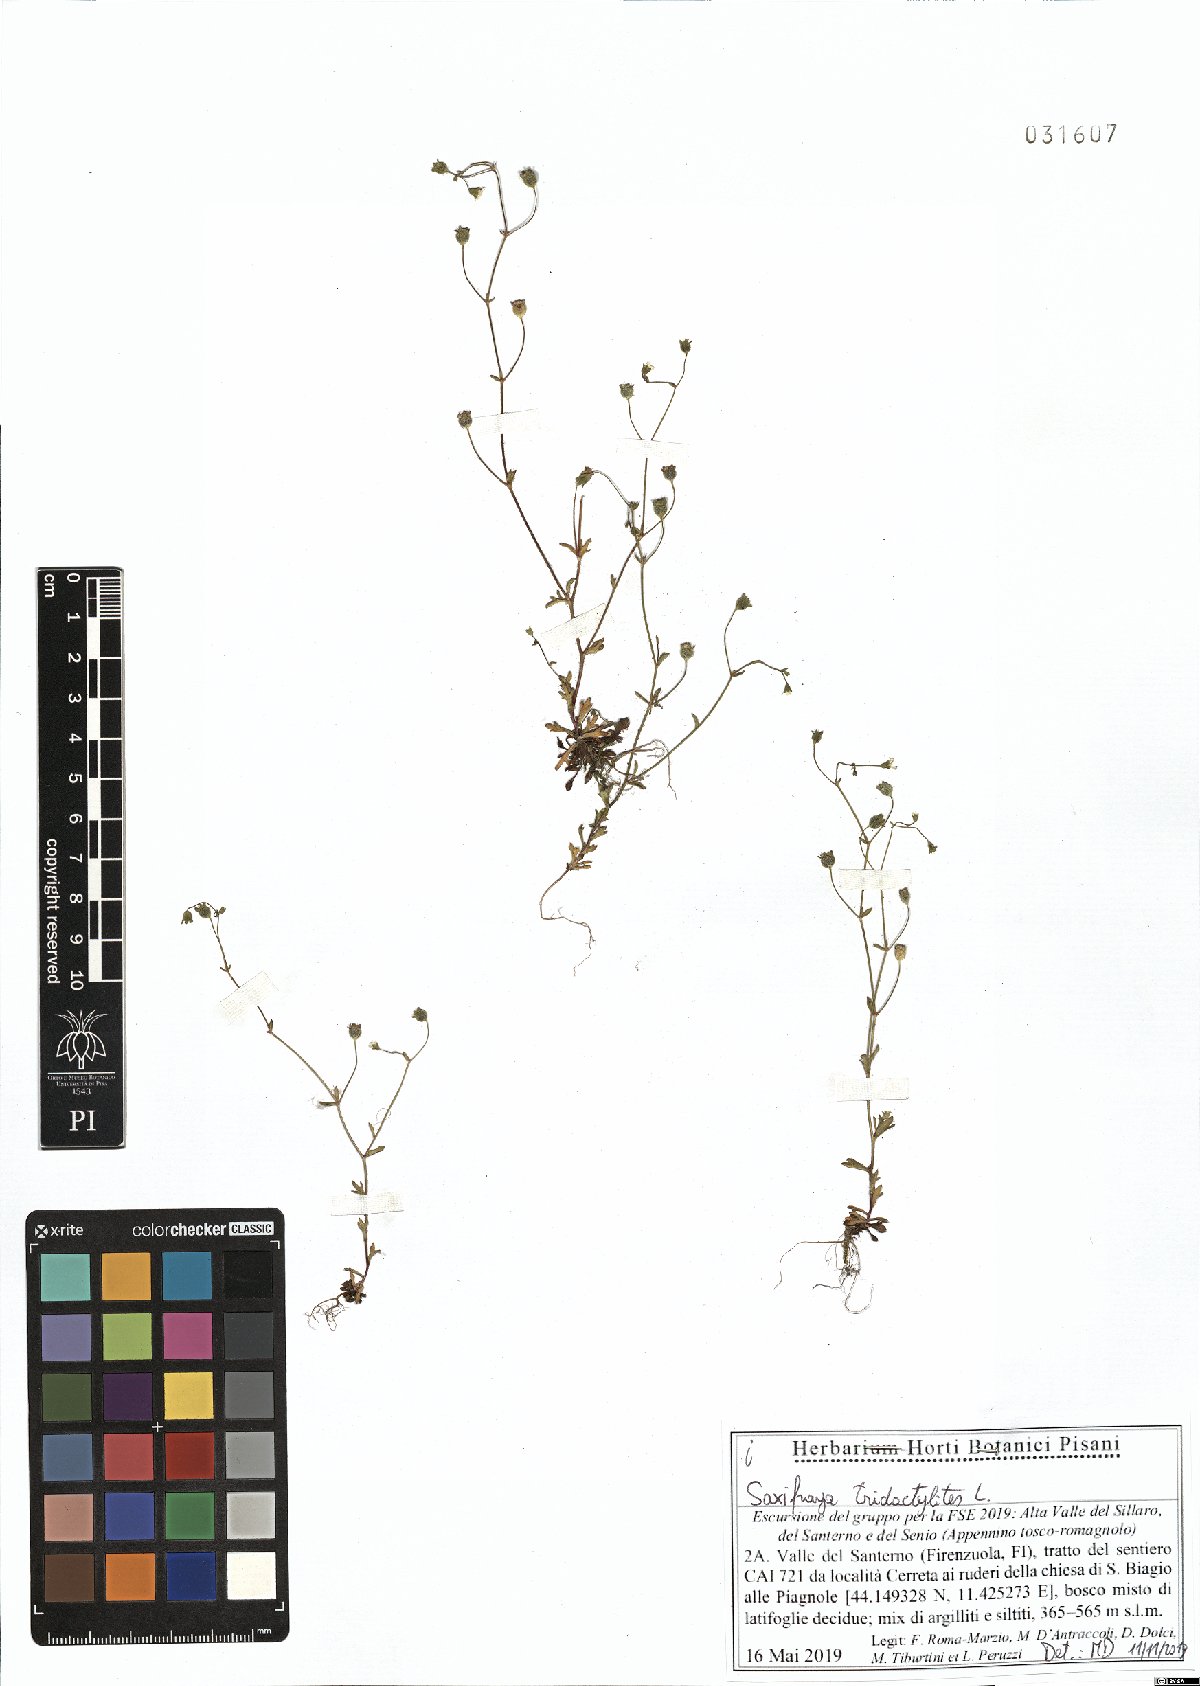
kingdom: Plantae
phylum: Tracheophyta
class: Magnoliopsida
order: Saxifragales
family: Saxifragaceae
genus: Saxifraga
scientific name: Saxifraga tridactylites
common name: Rue-leaved saxifrage
